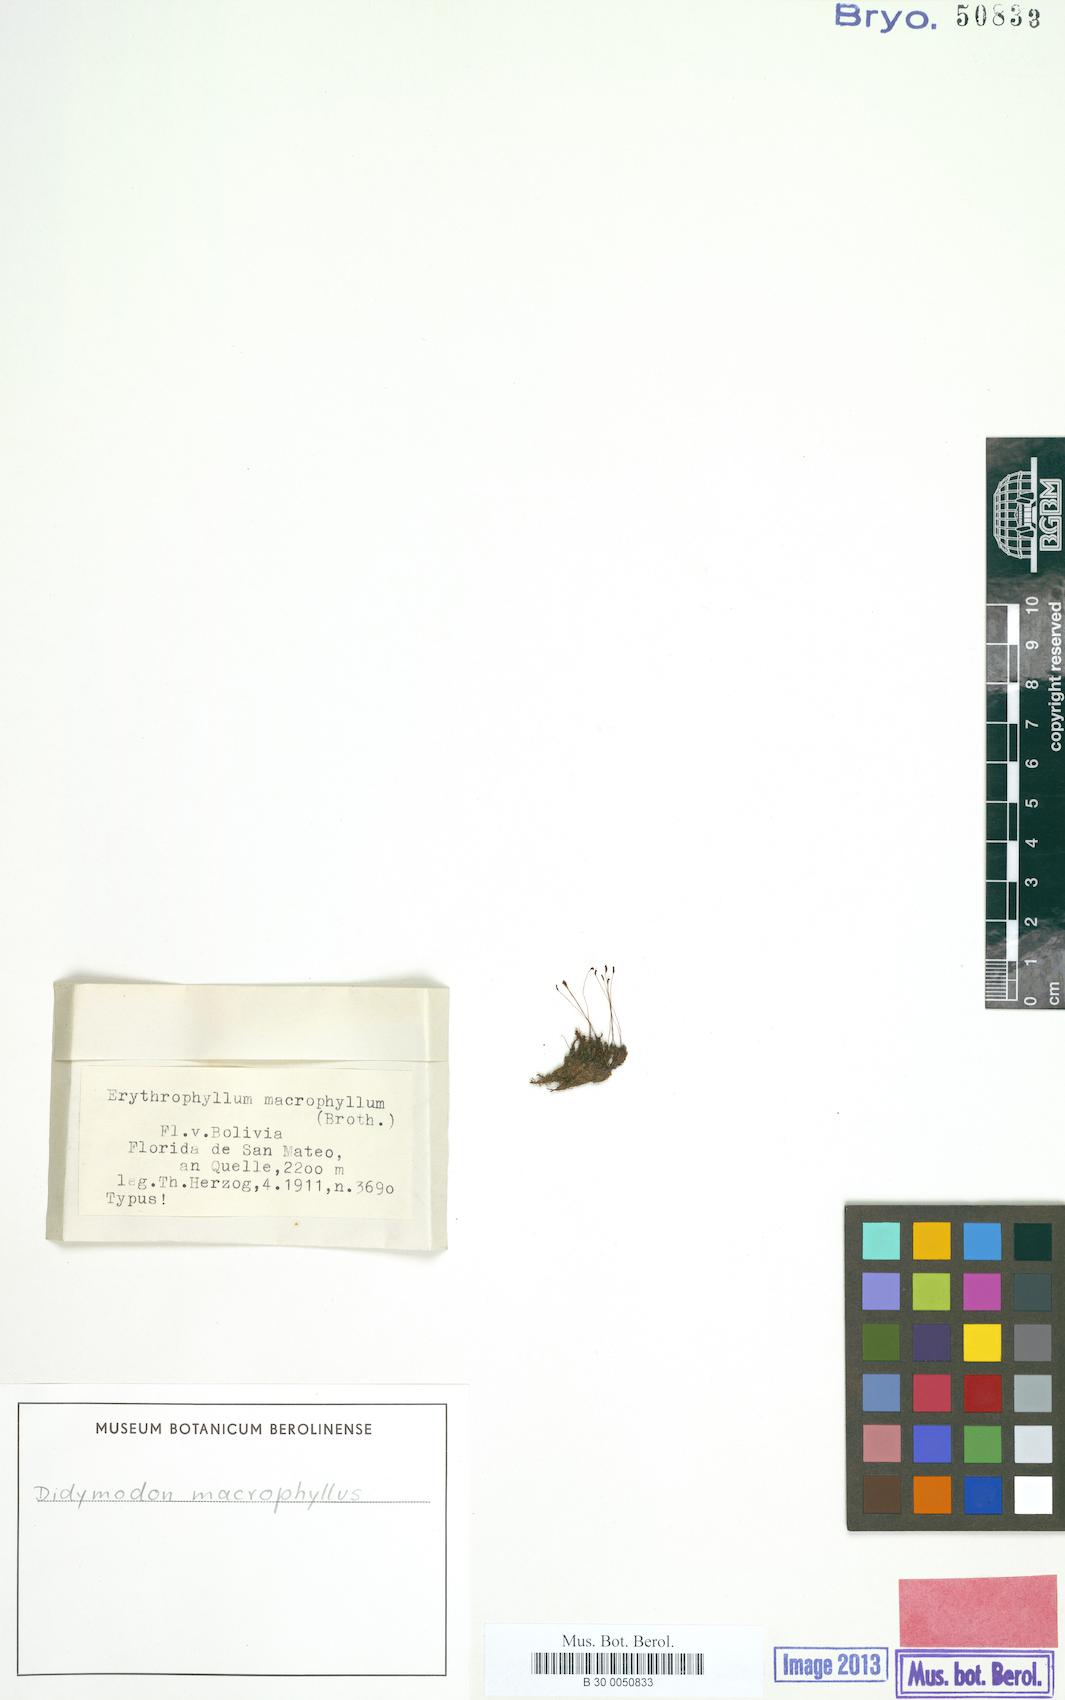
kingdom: Plantae
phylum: Bryophyta
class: Bryopsida
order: Pottiales
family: Pottiaceae
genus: Didymodon
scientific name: Didymodon macrophyllus
